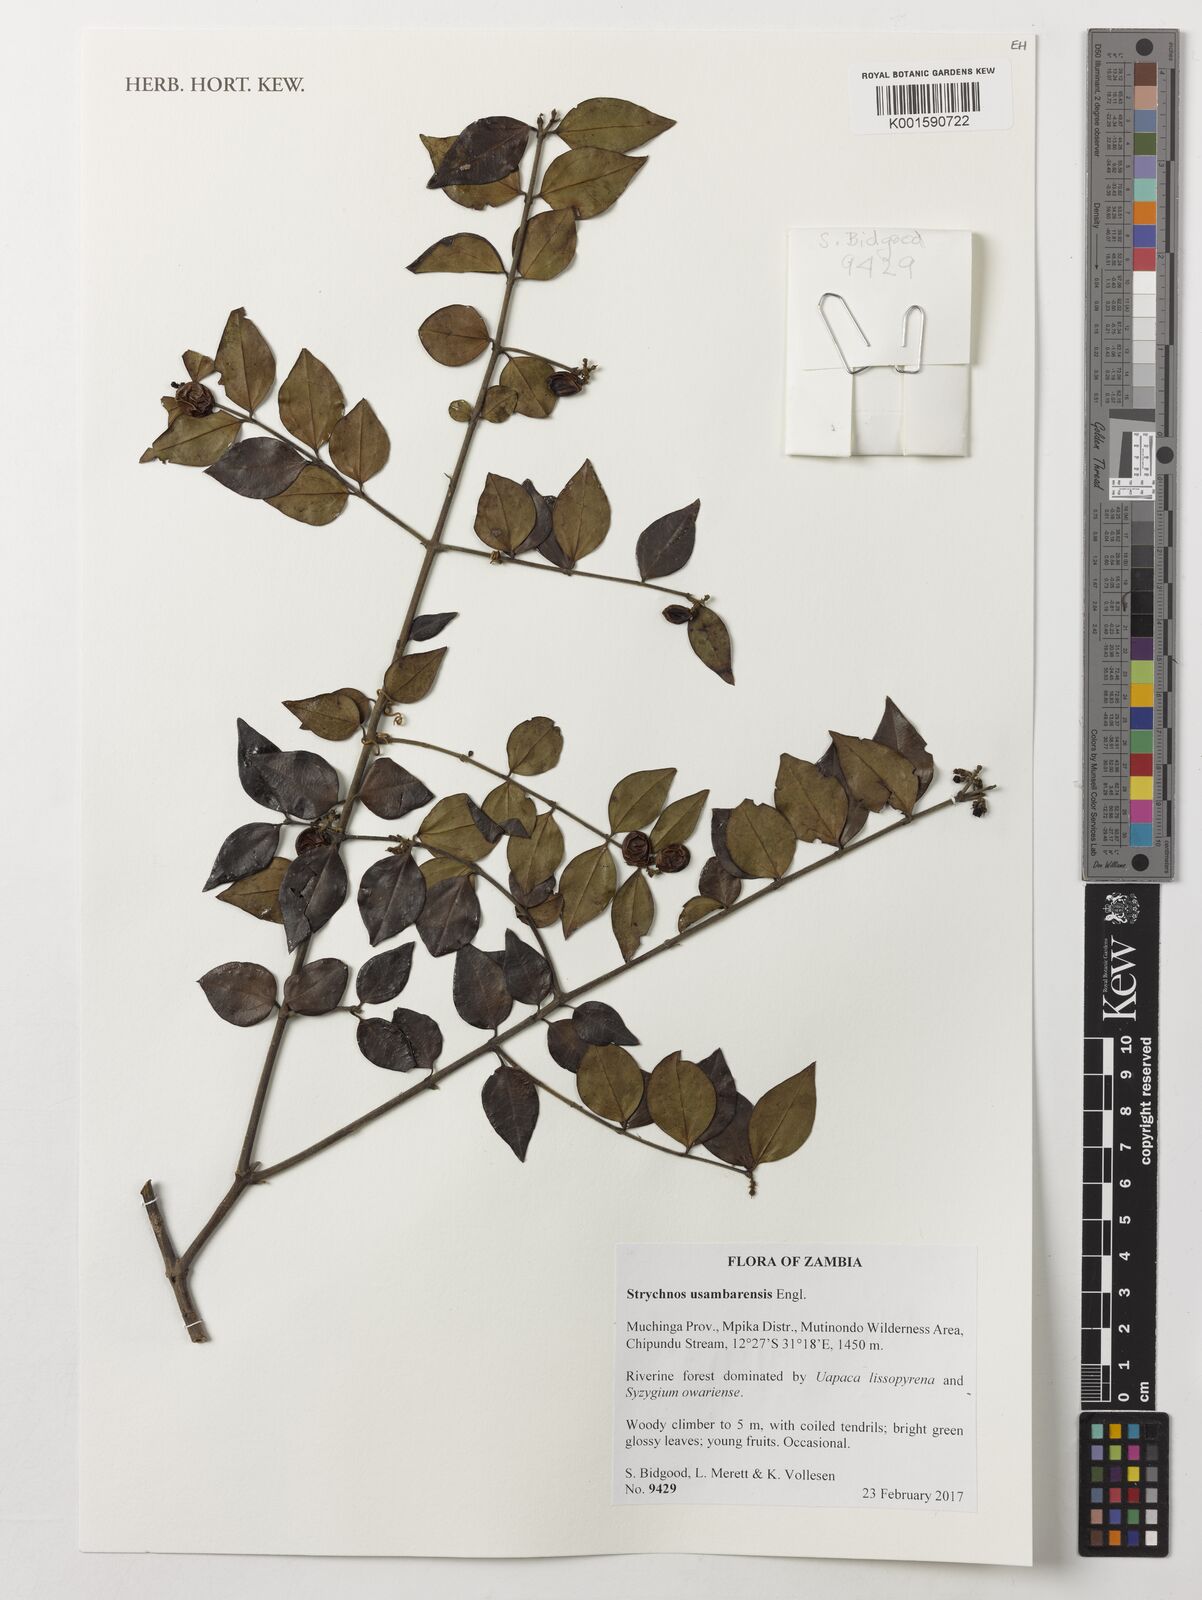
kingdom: Plantae
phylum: Tracheophyta
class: Magnoliopsida
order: Gentianales
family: Loganiaceae
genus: Strychnos
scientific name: Strychnos usambarensis
